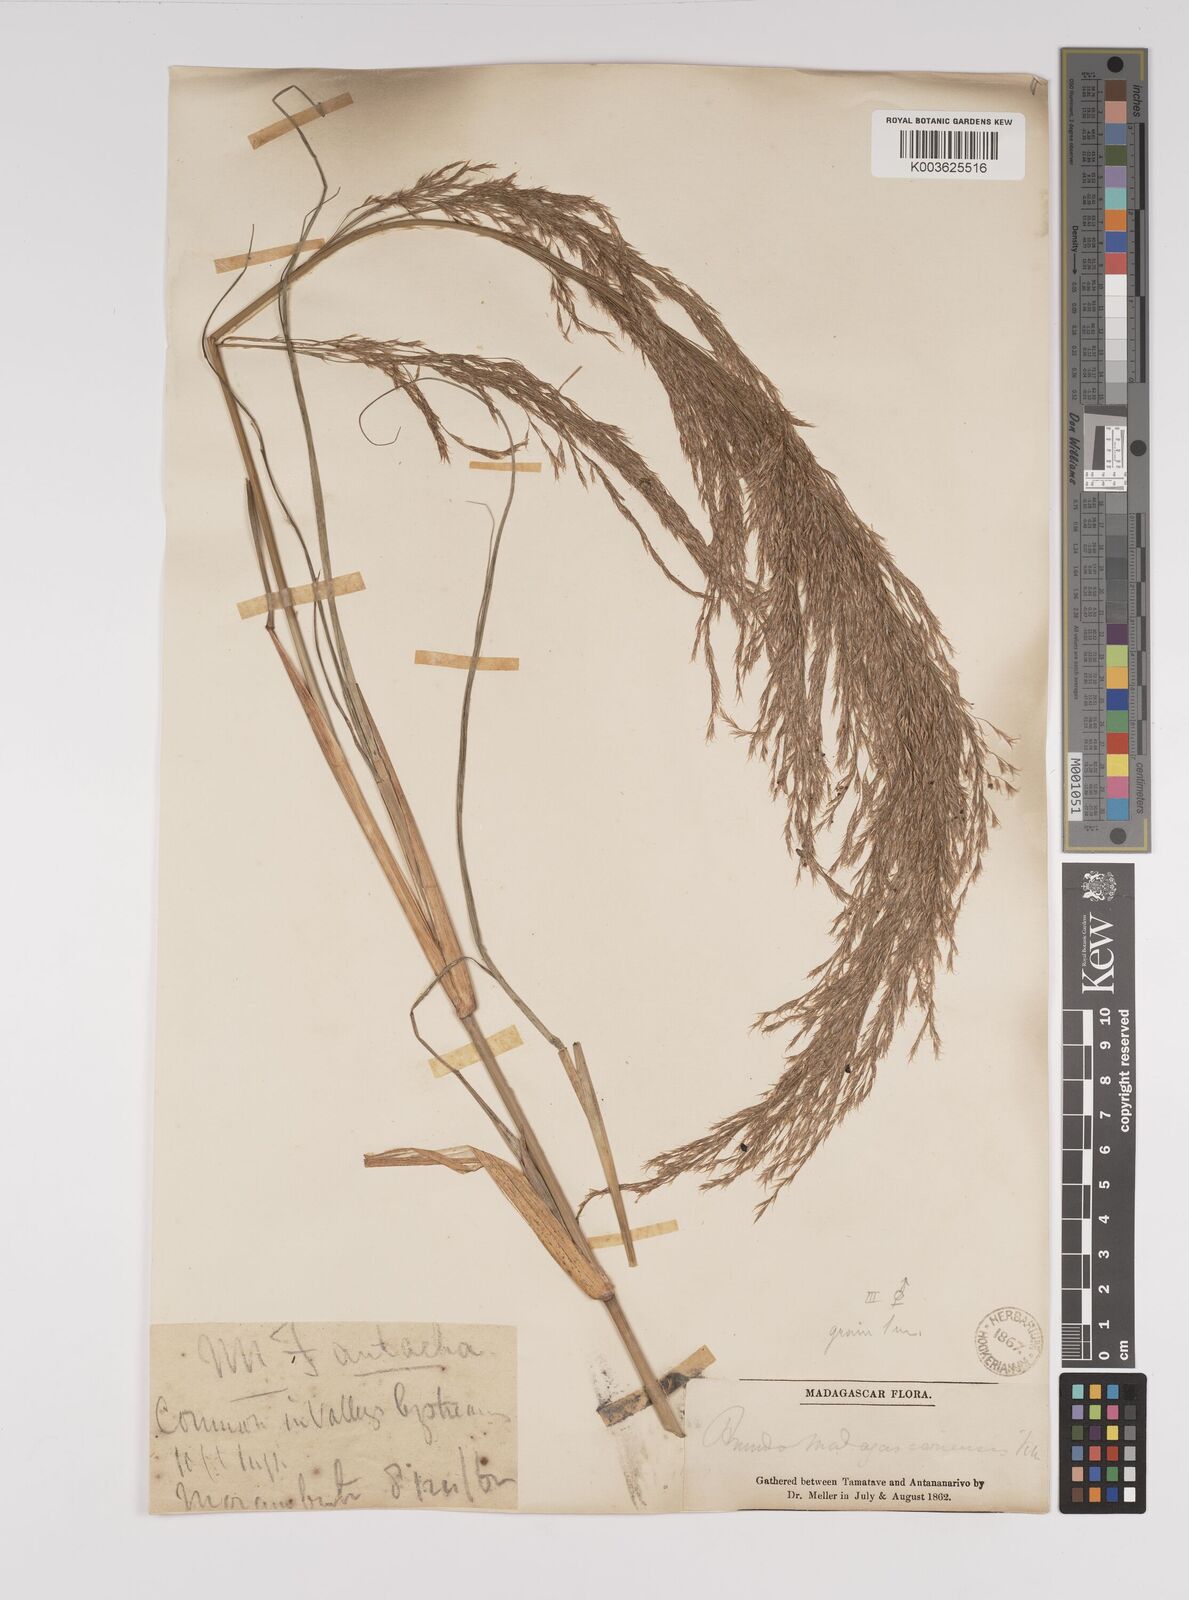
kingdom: Plantae
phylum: Tracheophyta
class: Liliopsida
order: Poales
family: Poaceae
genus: Neyraudia
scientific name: Neyraudia arundinacea
